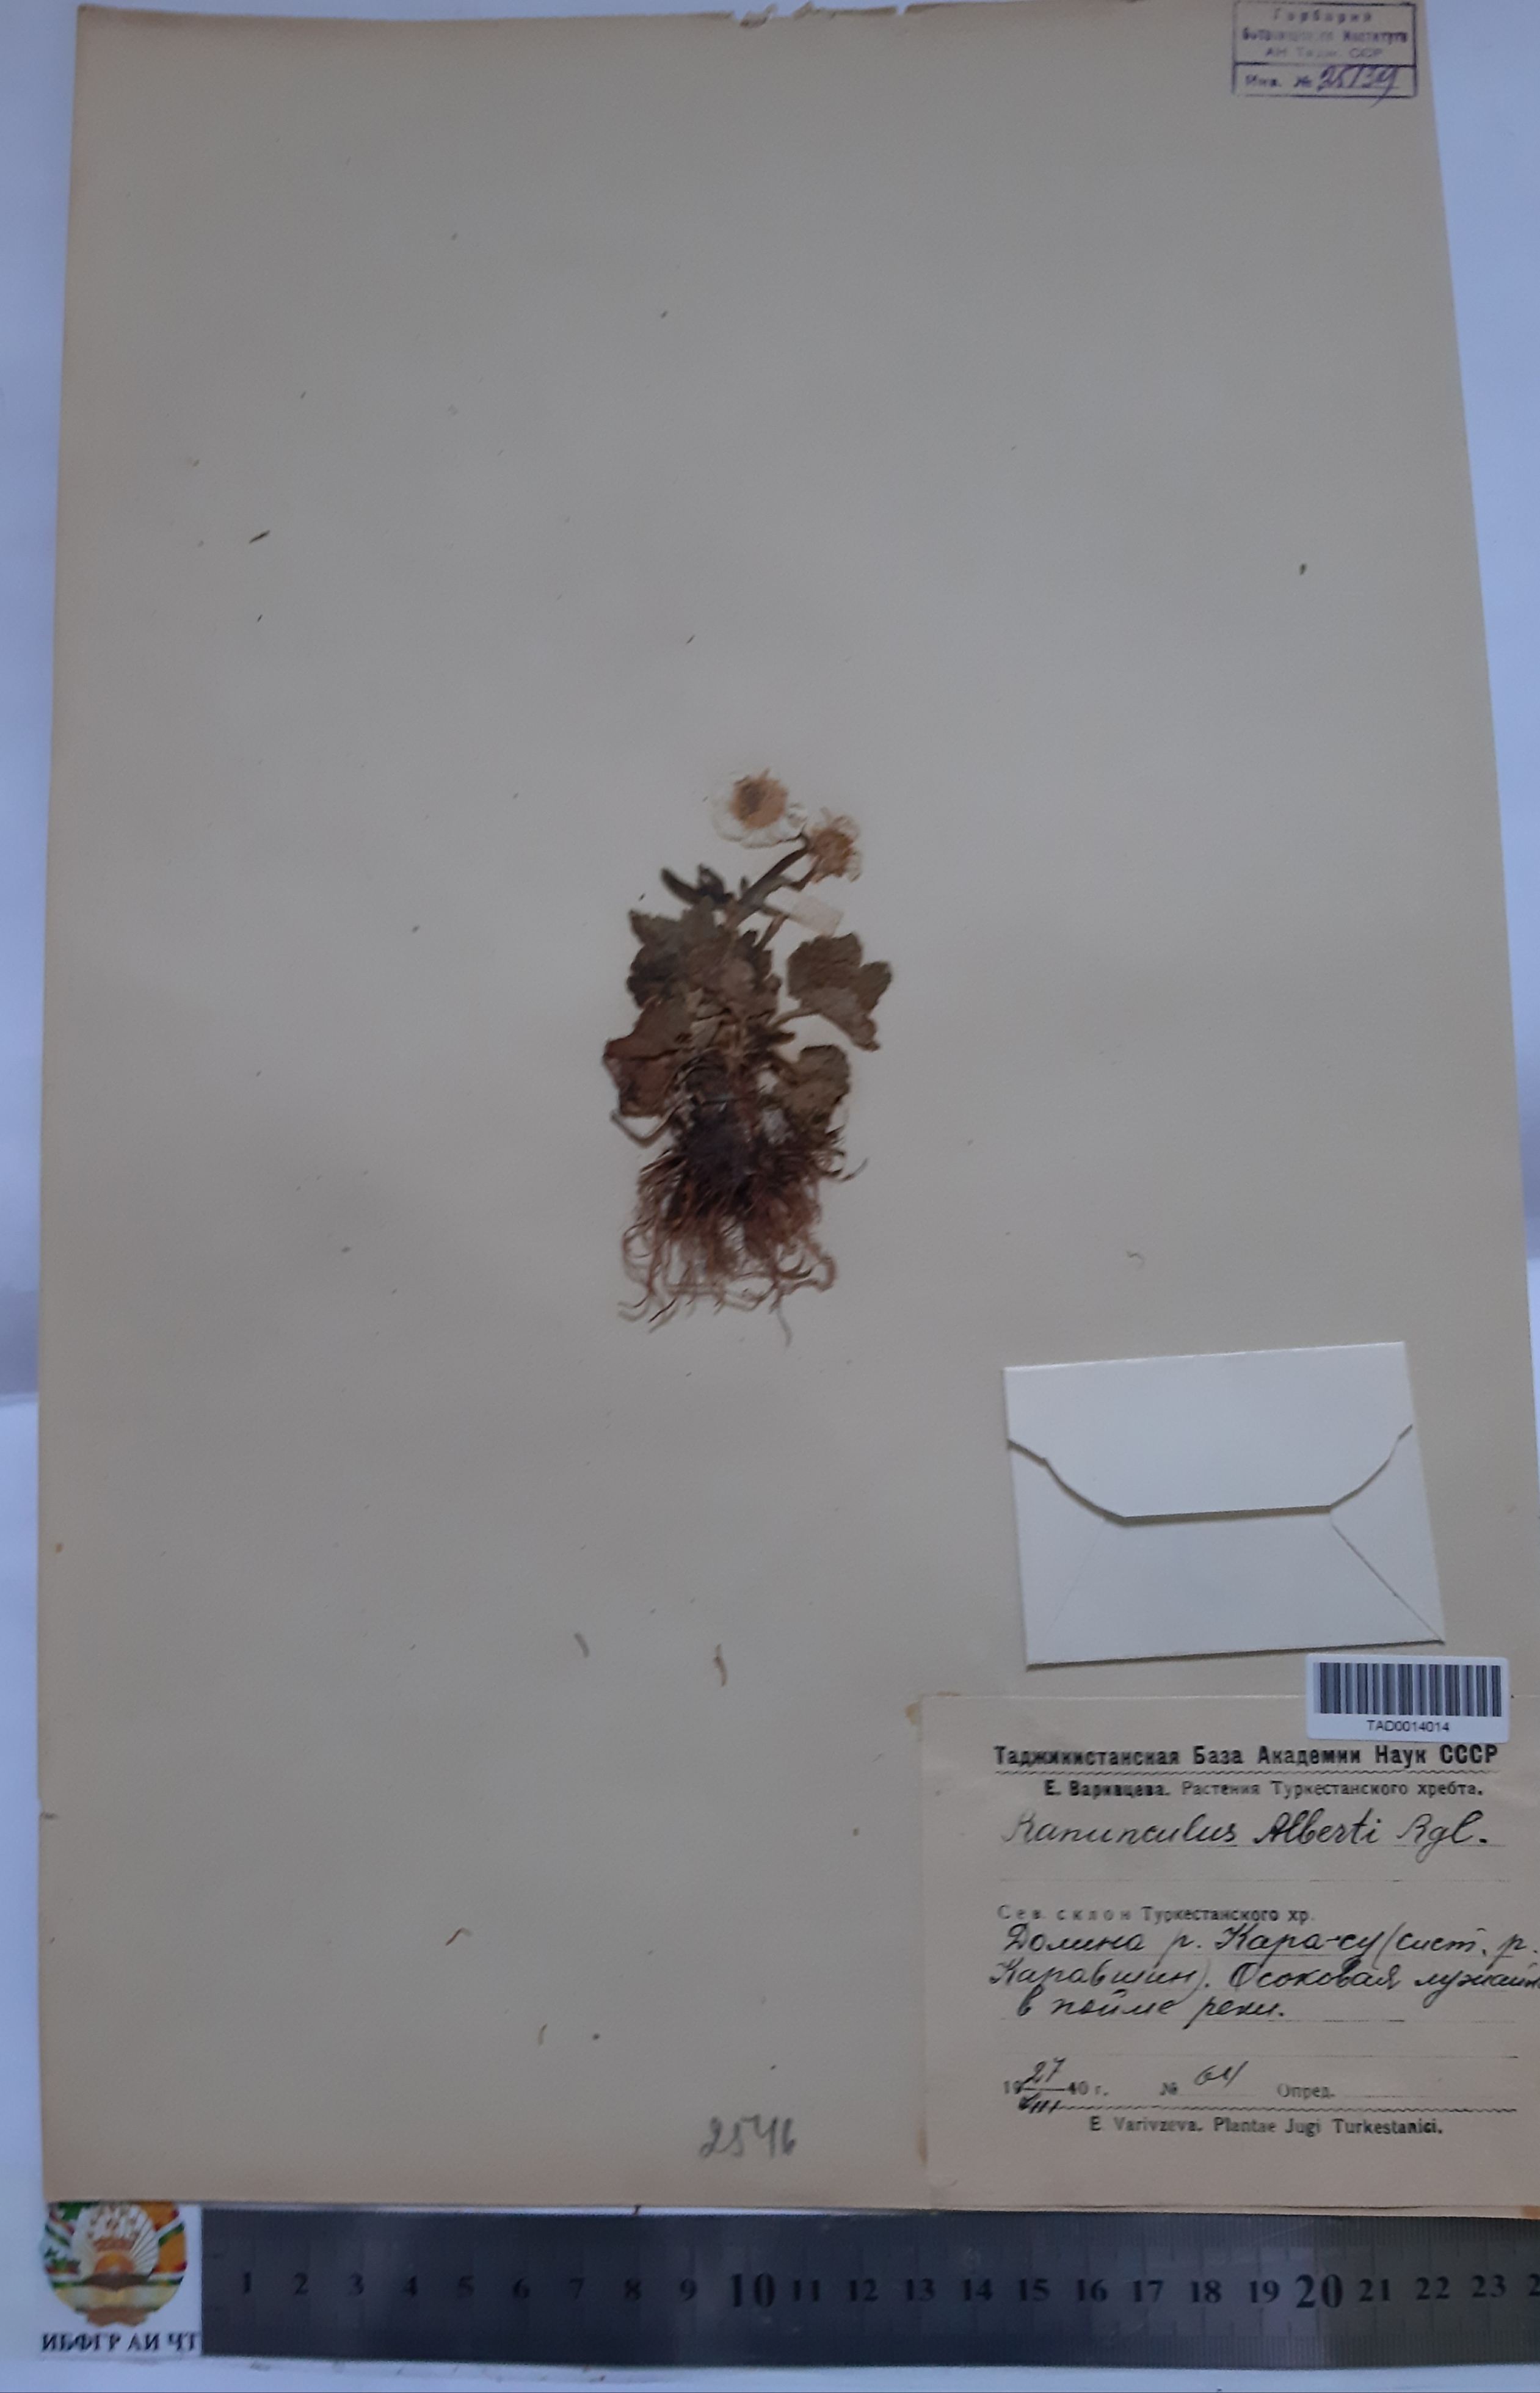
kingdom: Plantae
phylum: Tracheophyta
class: Magnoliopsida
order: Ranunculales
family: Ranunculaceae
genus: Ranunculus
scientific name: Ranunculus alberti
